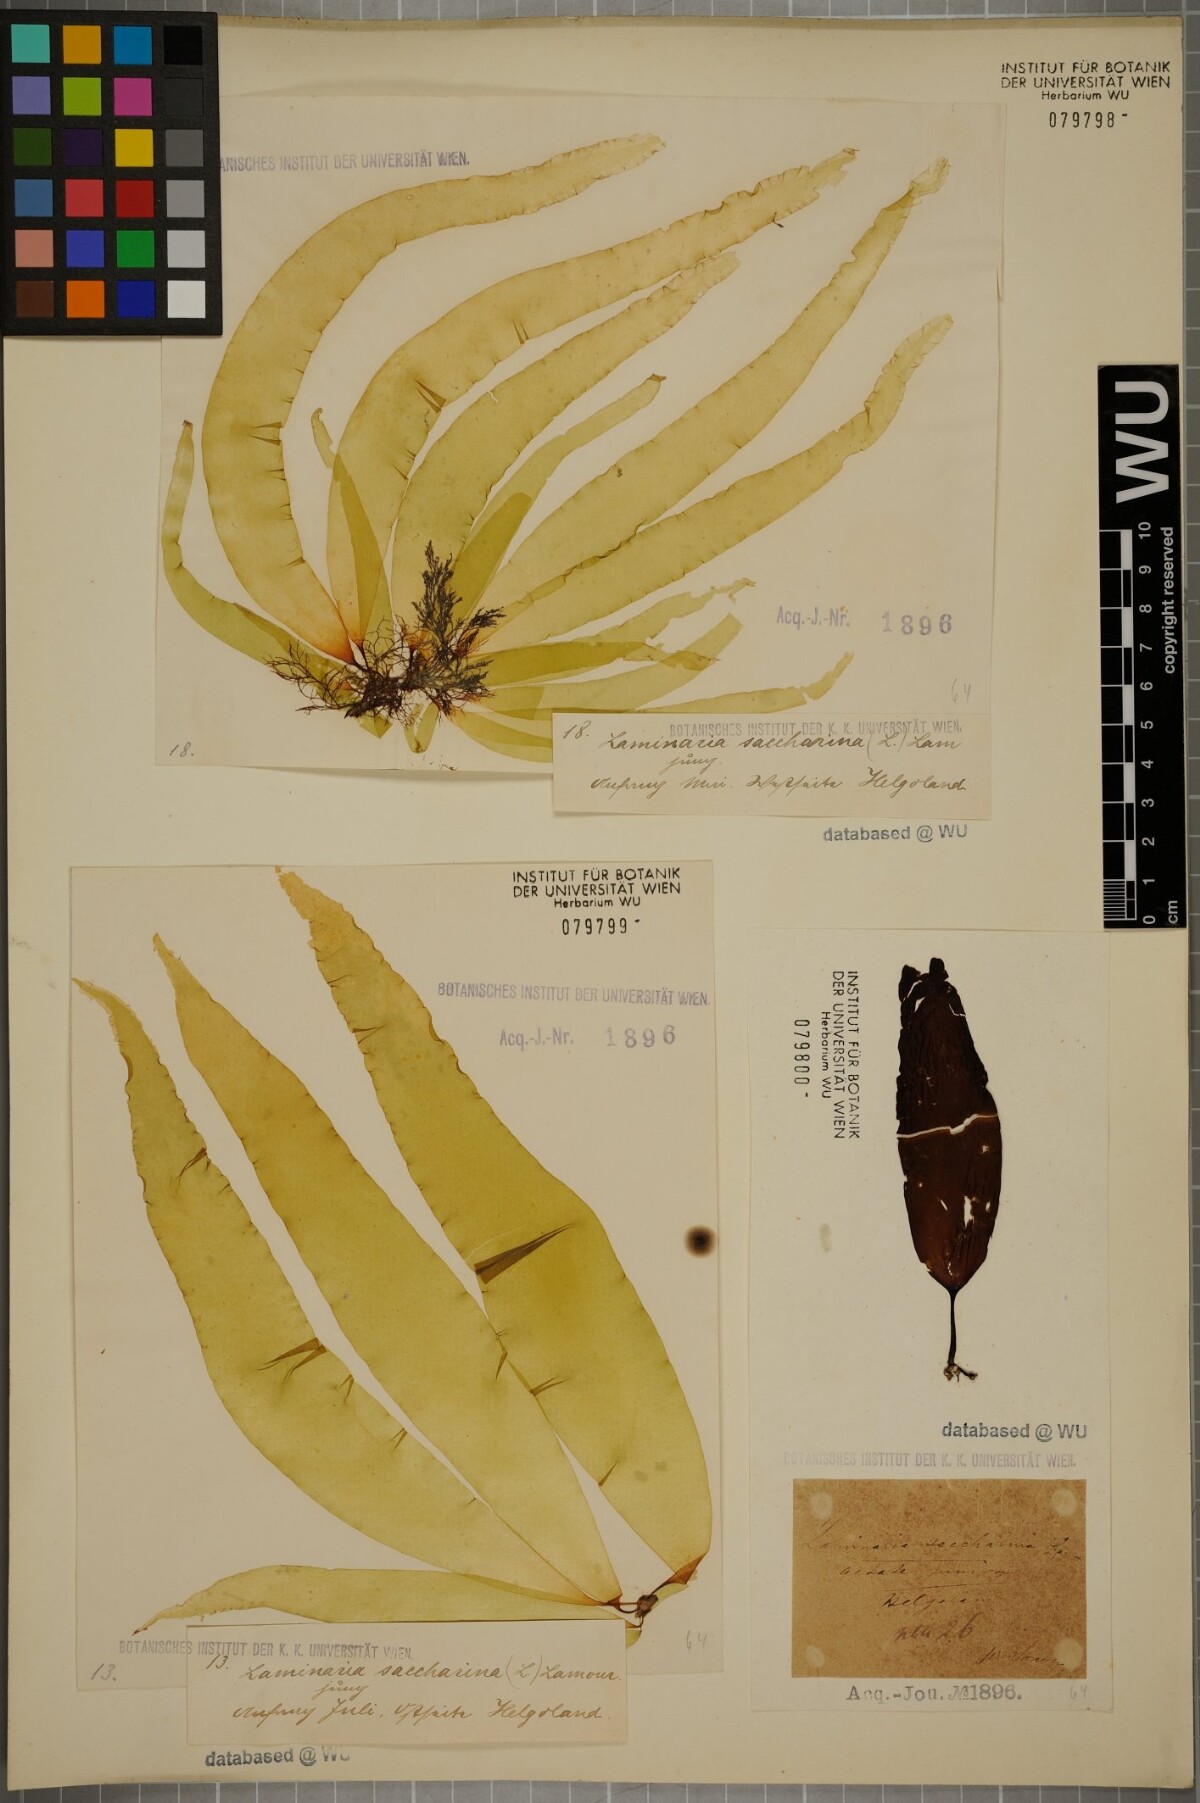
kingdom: Chromista
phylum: Ochrophyta
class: Phaeophyceae
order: Laminariales
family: Laminariaceae
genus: Saccharina
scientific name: Saccharina latissima
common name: Poor man's weather glass
